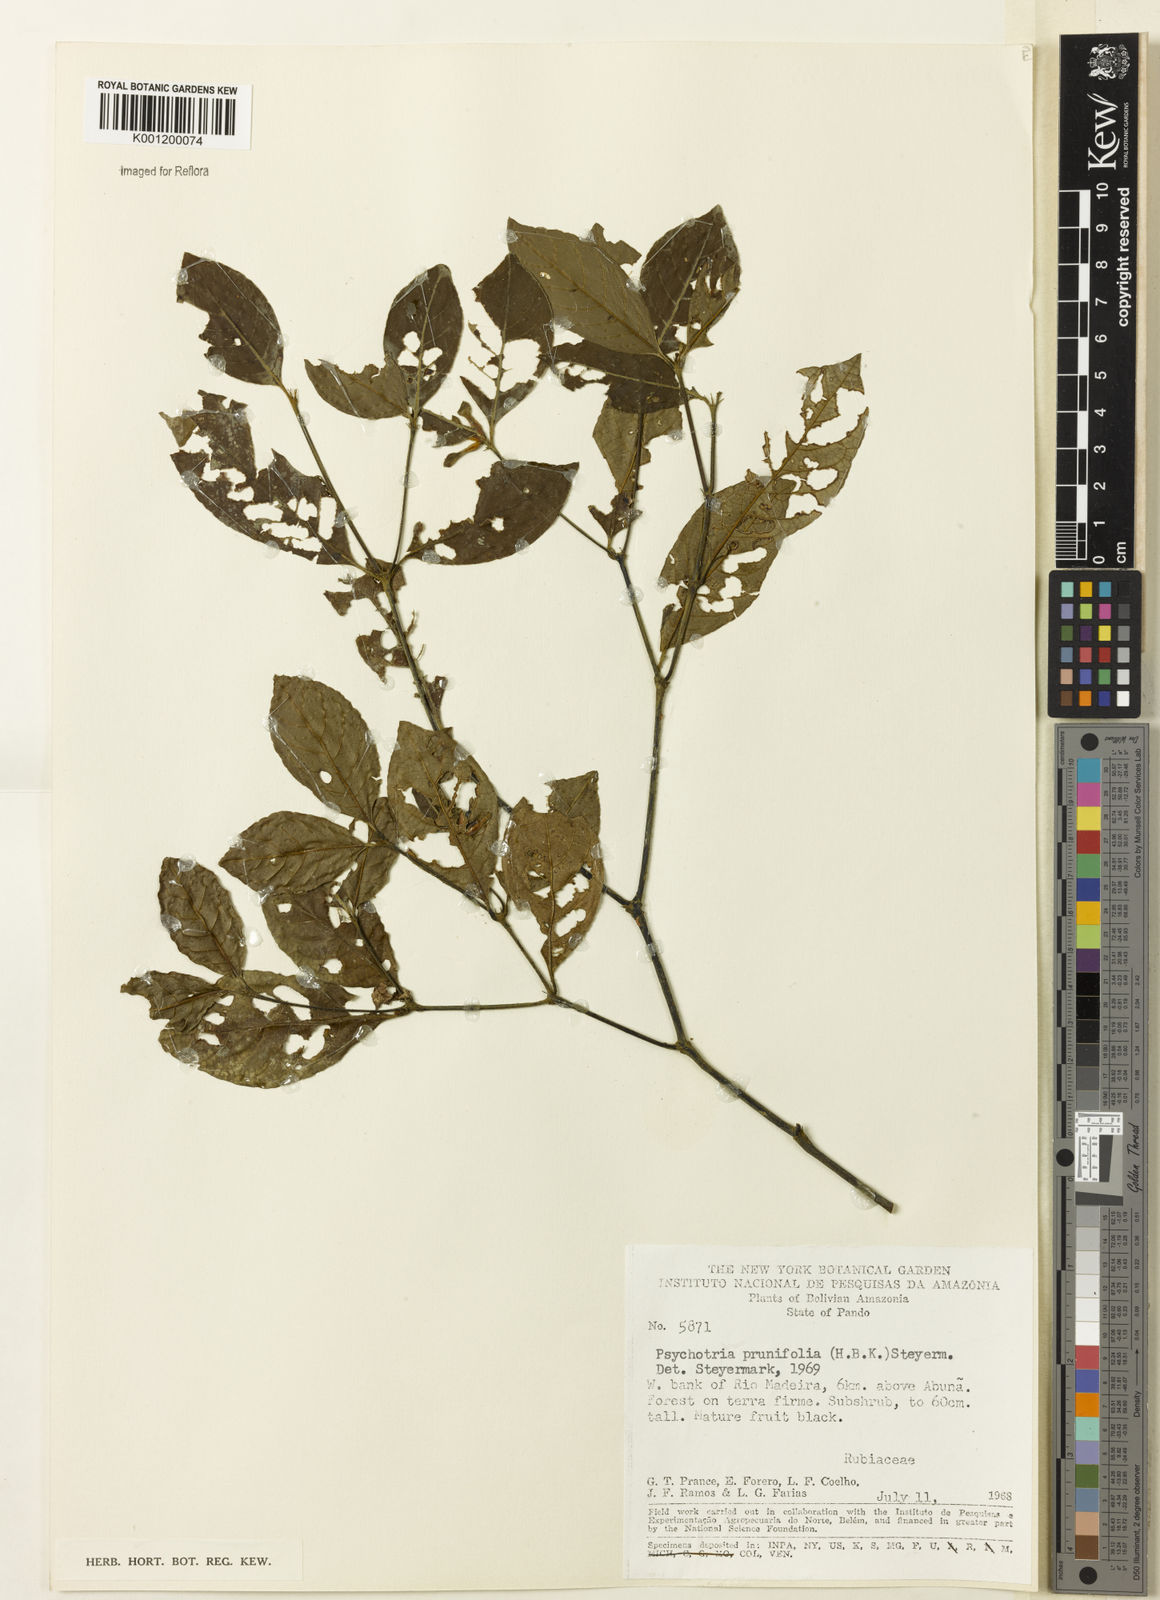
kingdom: Plantae
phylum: Tracheophyta
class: Magnoliopsida
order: Gentianales
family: Rubiaceae
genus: Palicourea
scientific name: Palicourea prunifolia
